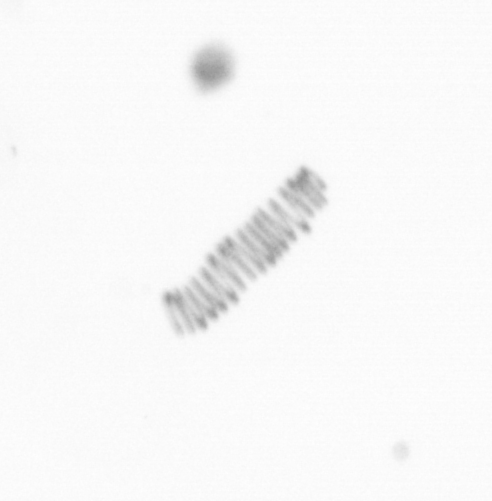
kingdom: Chromista
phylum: Ochrophyta
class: Bacillariophyceae
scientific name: Bacillariophyceae
